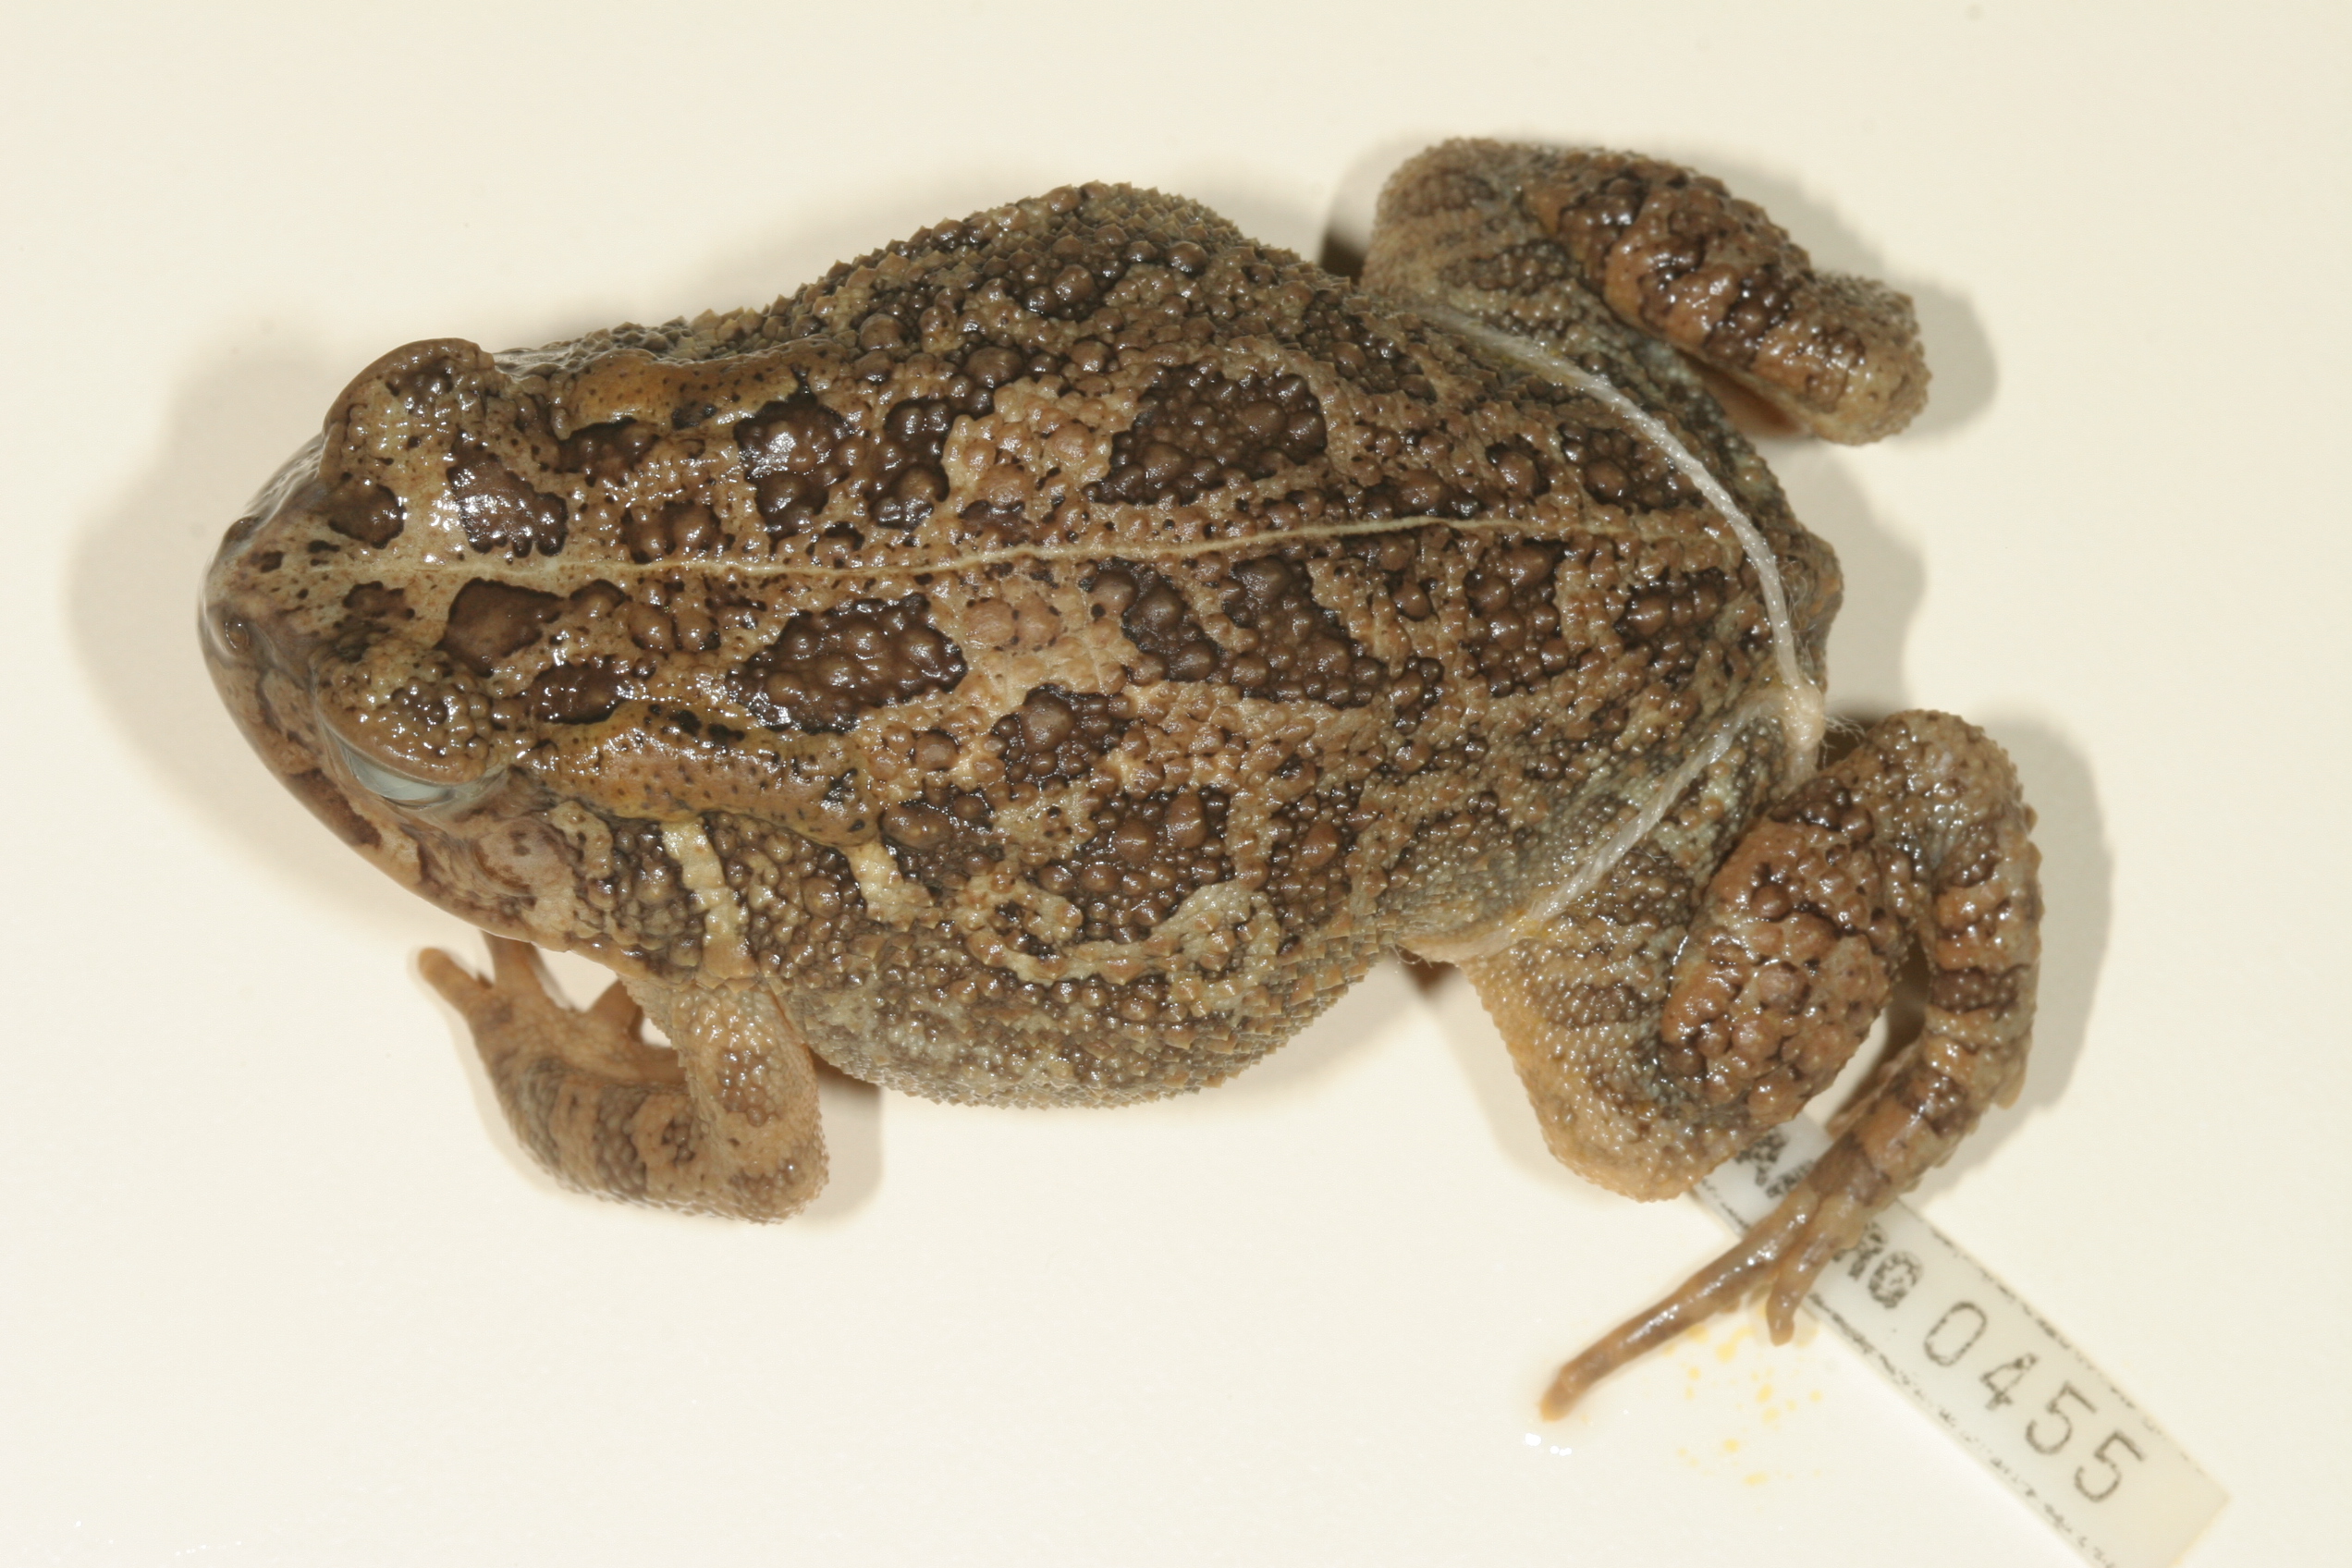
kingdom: Animalia
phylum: Chordata
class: Amphibia
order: Anura
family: Bufonidae
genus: Sclerophrys
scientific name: Sclerophrys gutturalis
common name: African common toad
